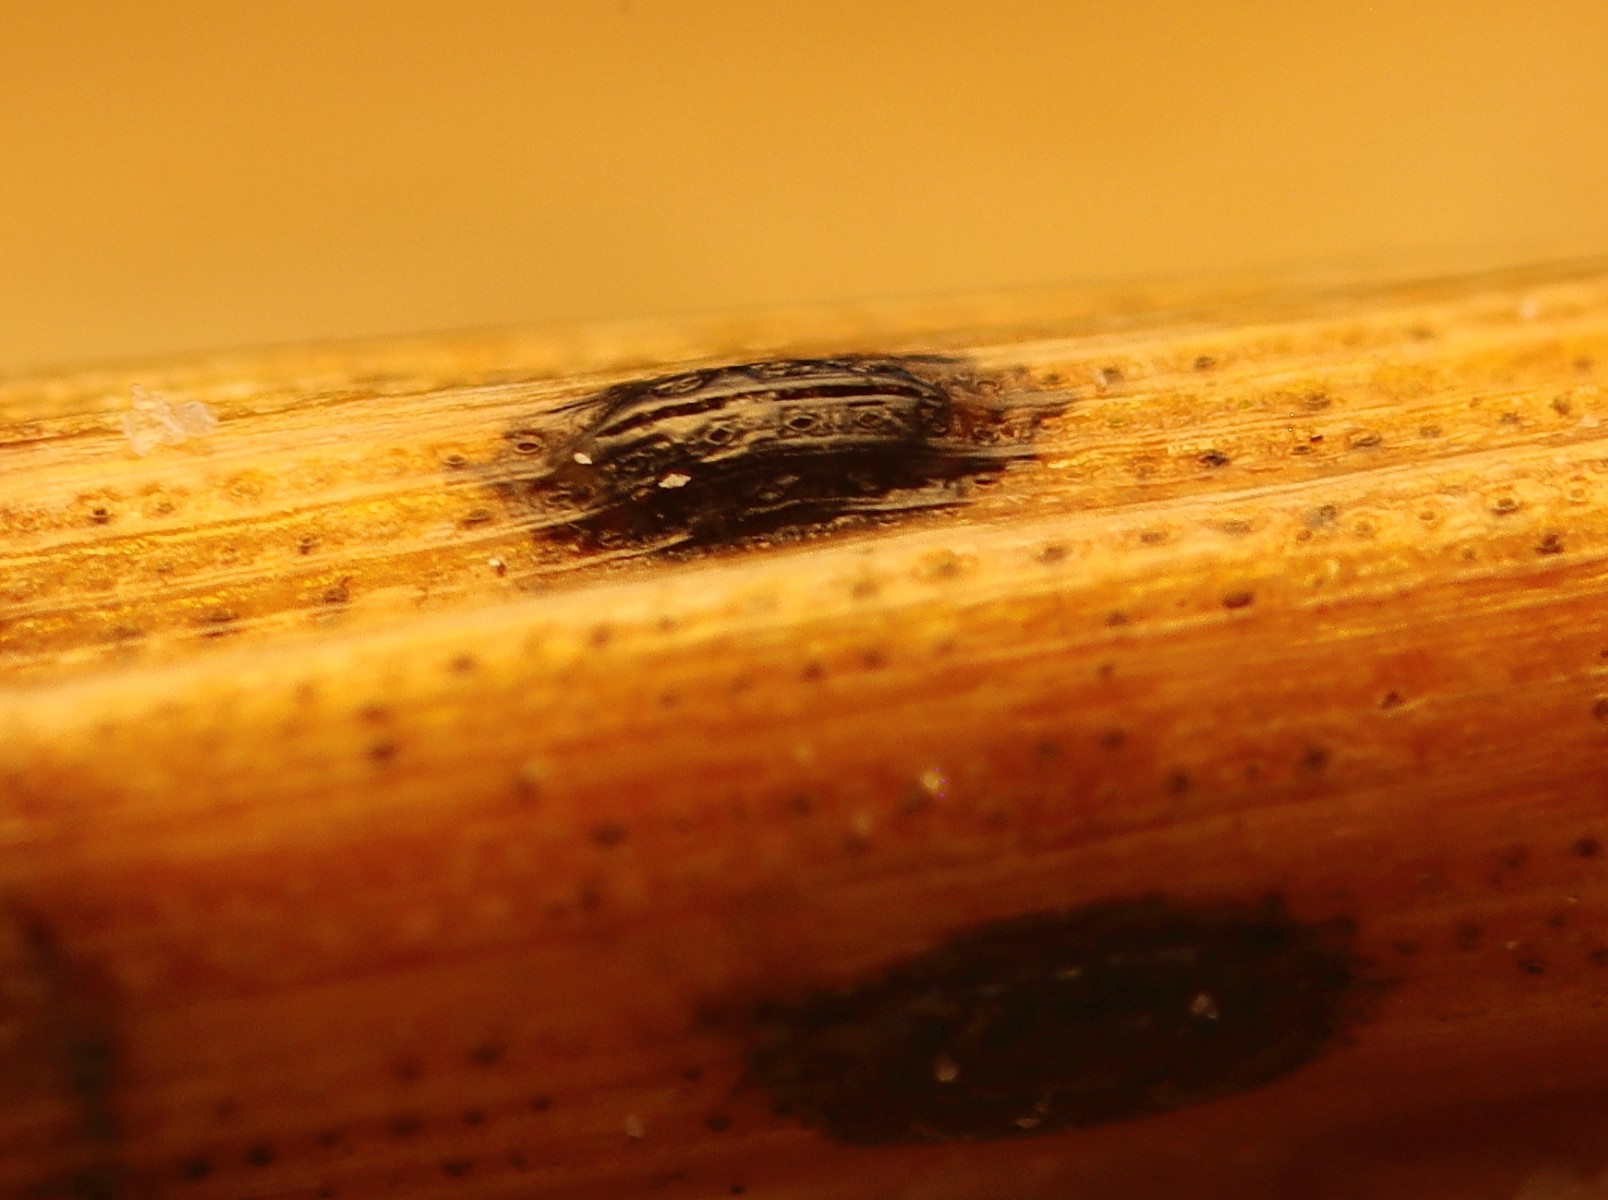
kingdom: Fungi
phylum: Ascomycota
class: Leotiomycetes
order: Rhytismatales
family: Rhytismataceae
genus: Lophodermium
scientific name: Lophodermium pinastri
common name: fyrre-fureplet
